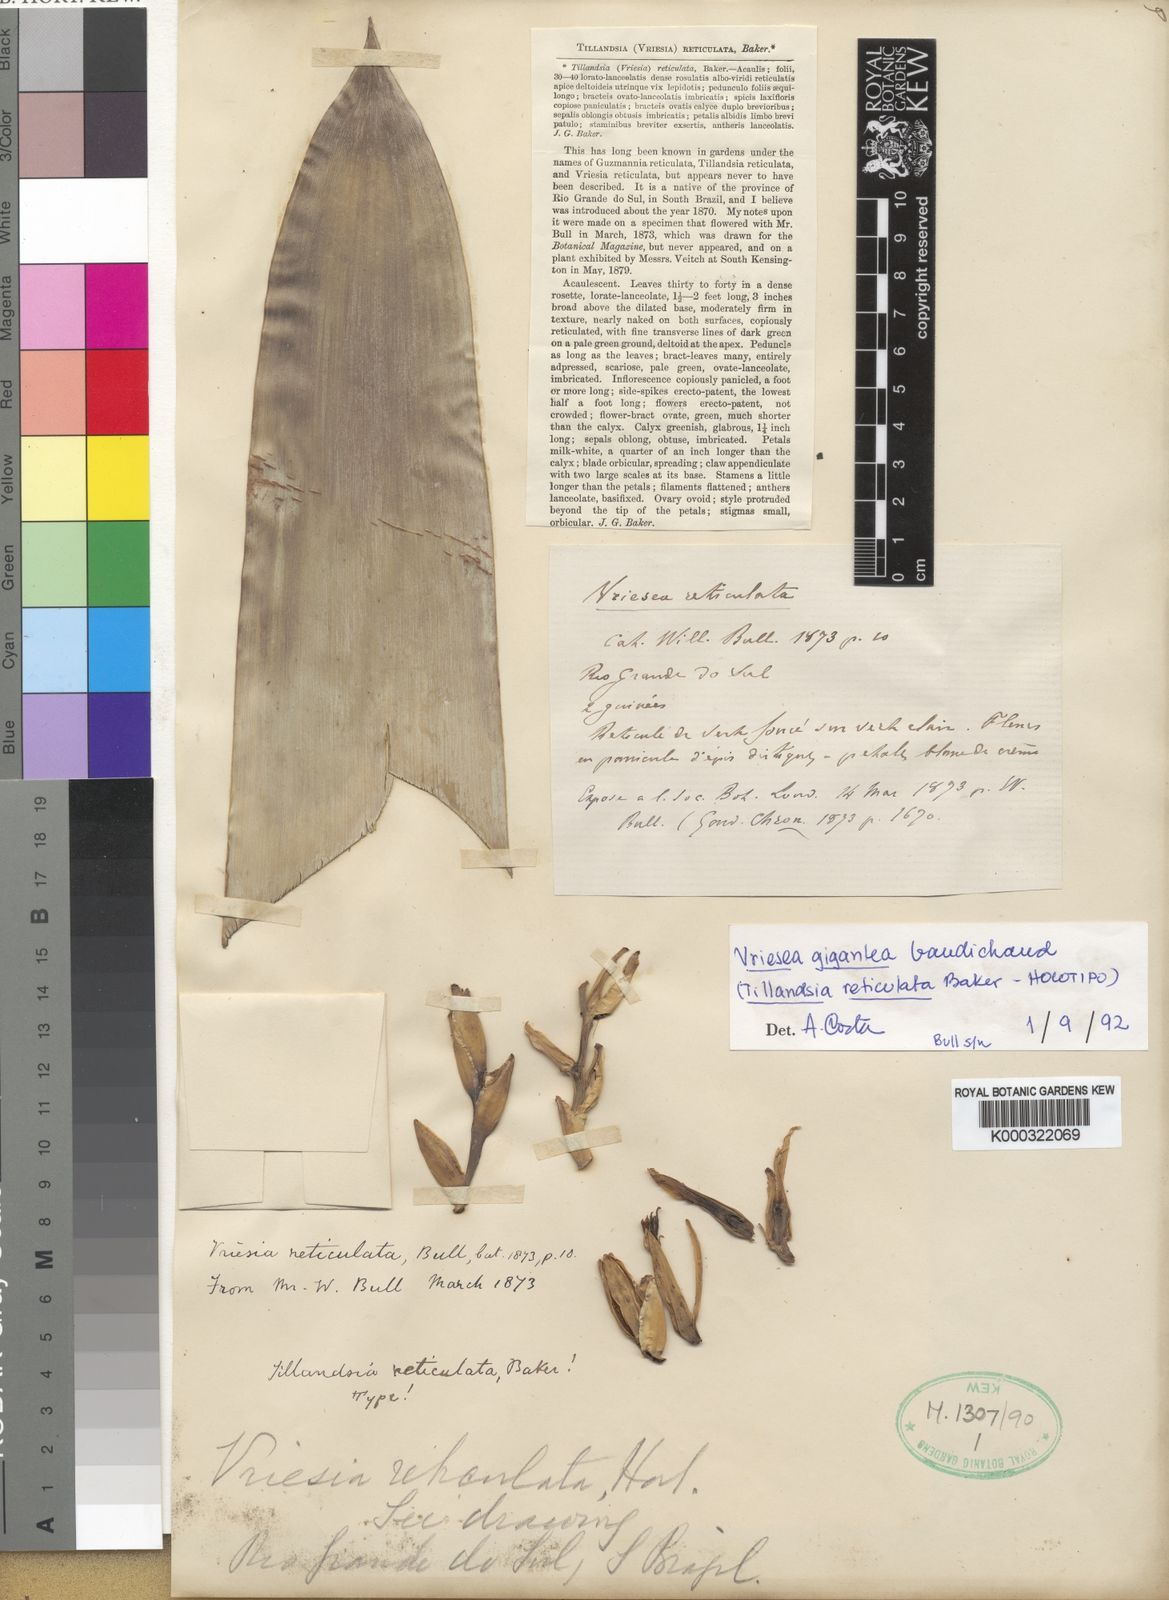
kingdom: Plantae
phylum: Tracheophyta
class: Liliopsida
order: Poales
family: Bromeliaceae
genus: Vriesea
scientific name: Vriesea gigantea
